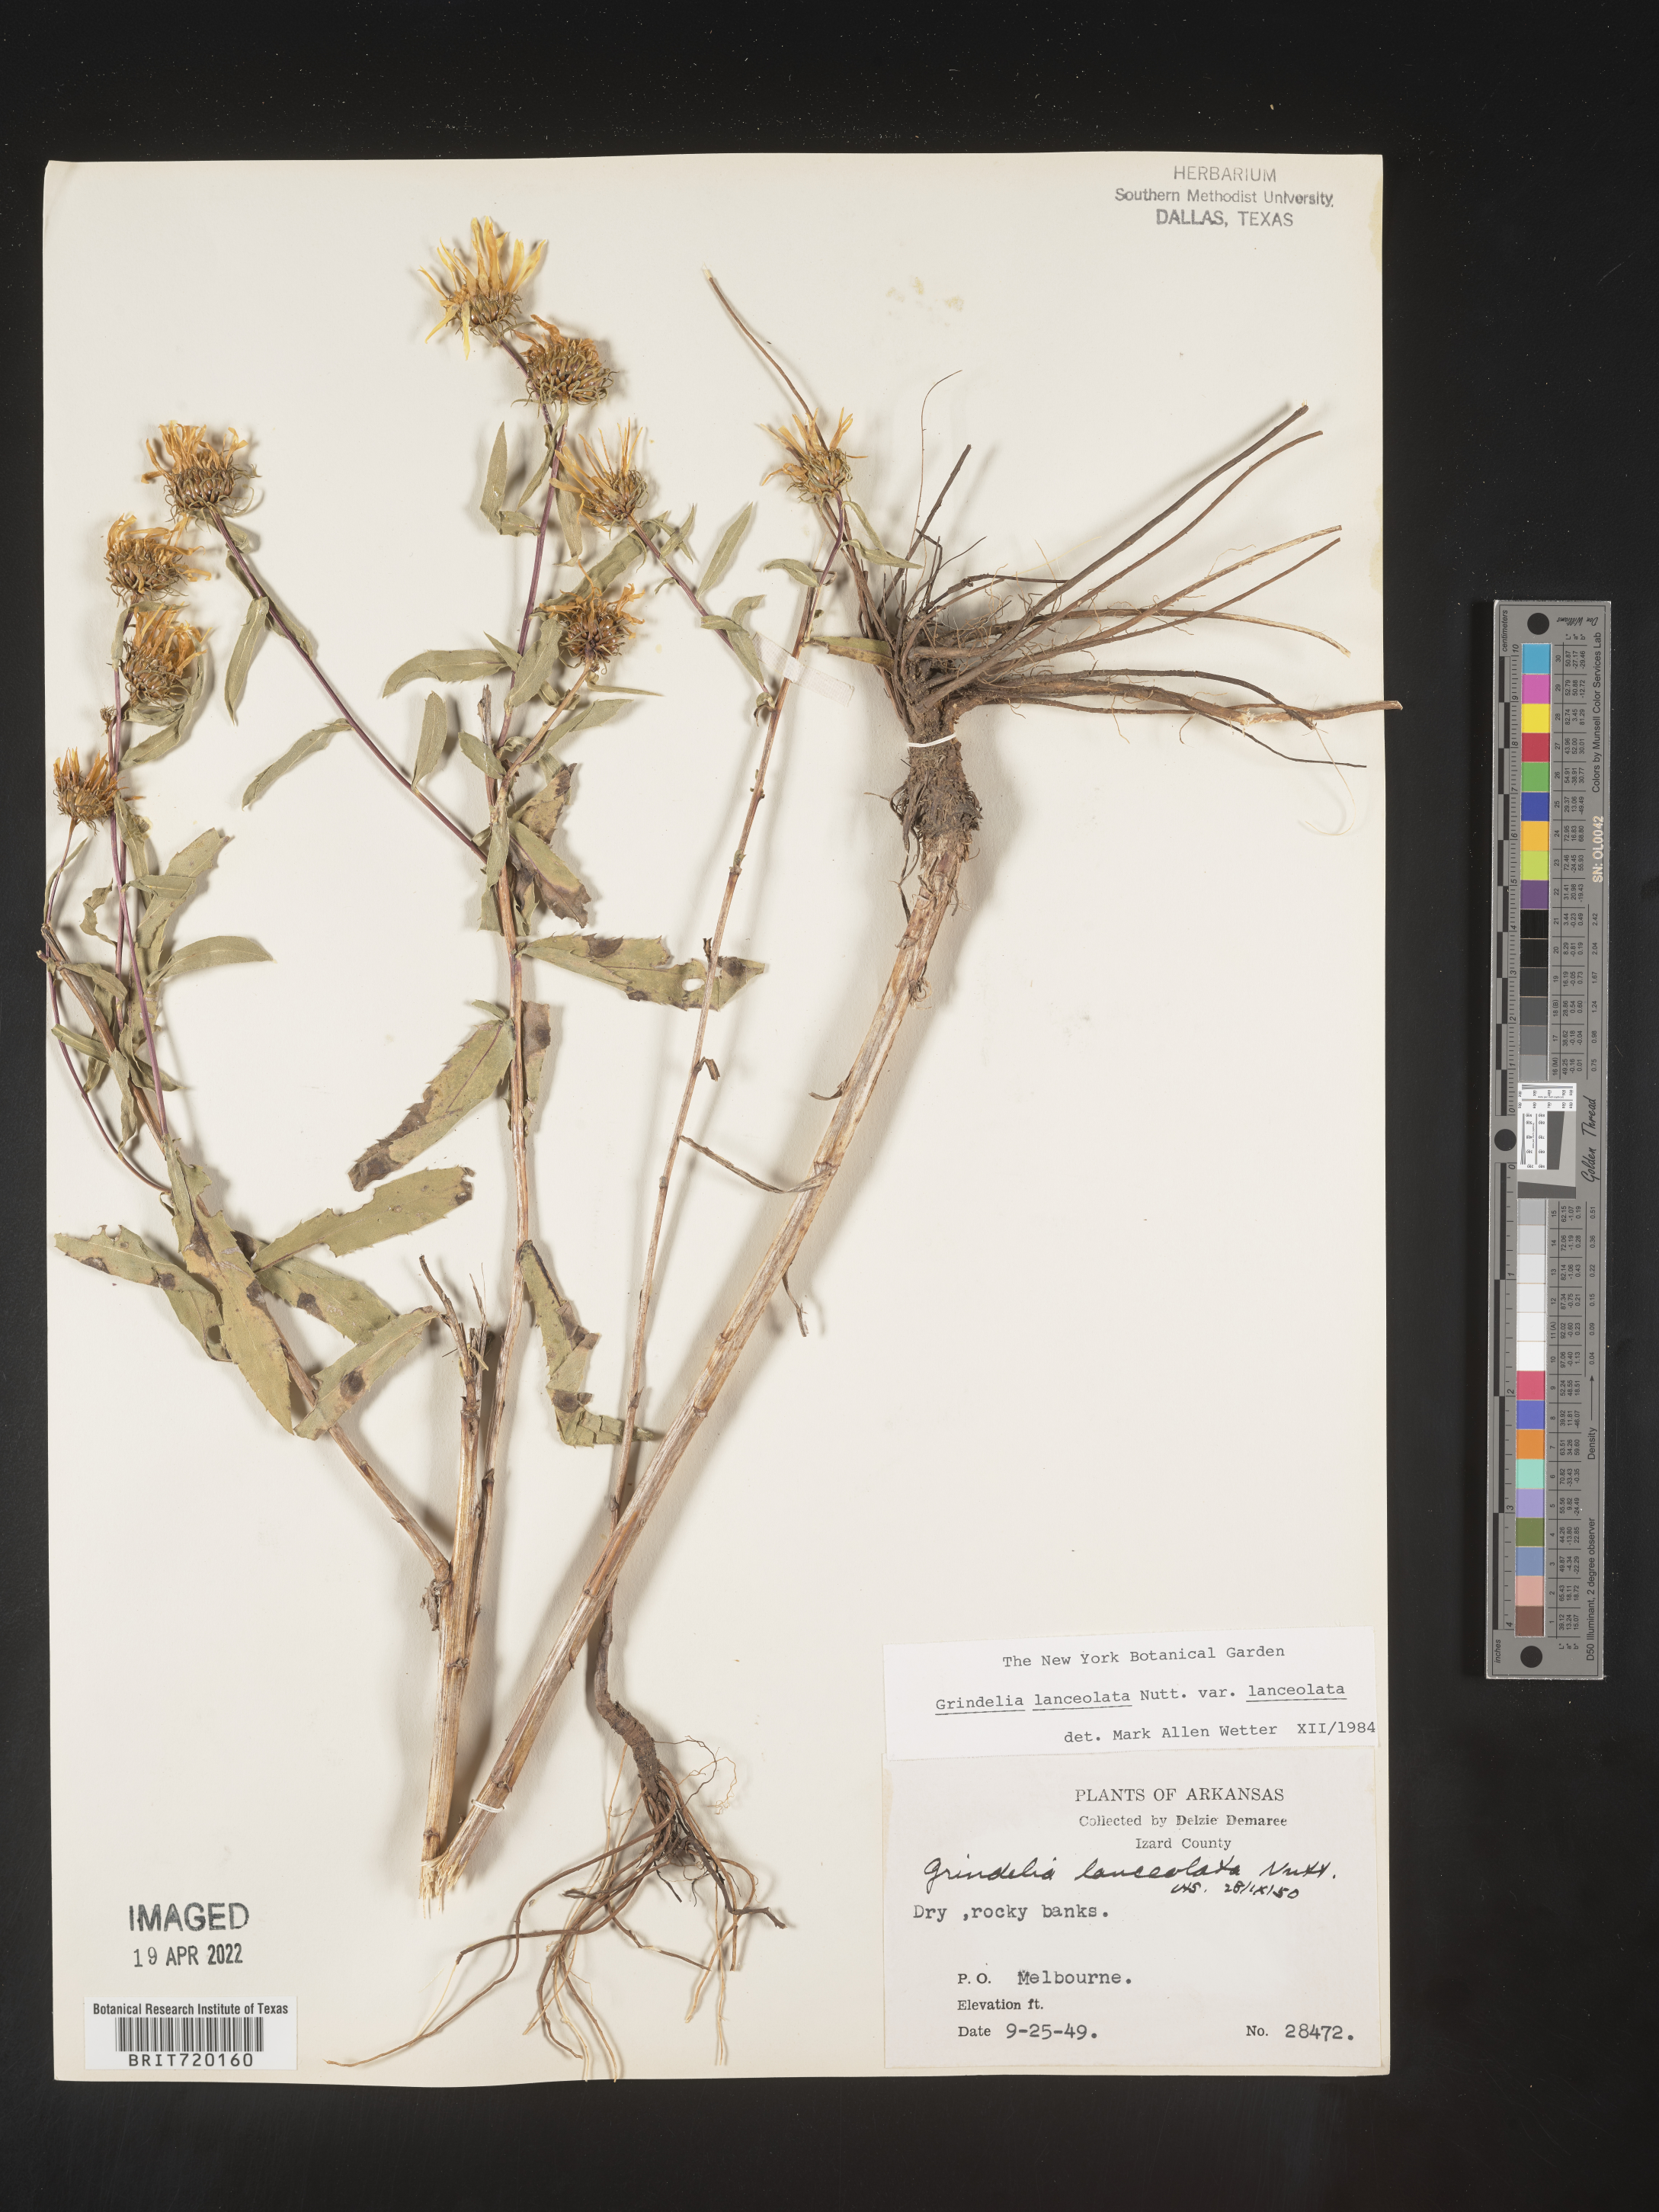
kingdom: Plantae
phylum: Tracheophyta
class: Magnoliopsida
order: Asterales
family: Asteraceae
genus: Grindelia
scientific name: Grindelia lanceolata
